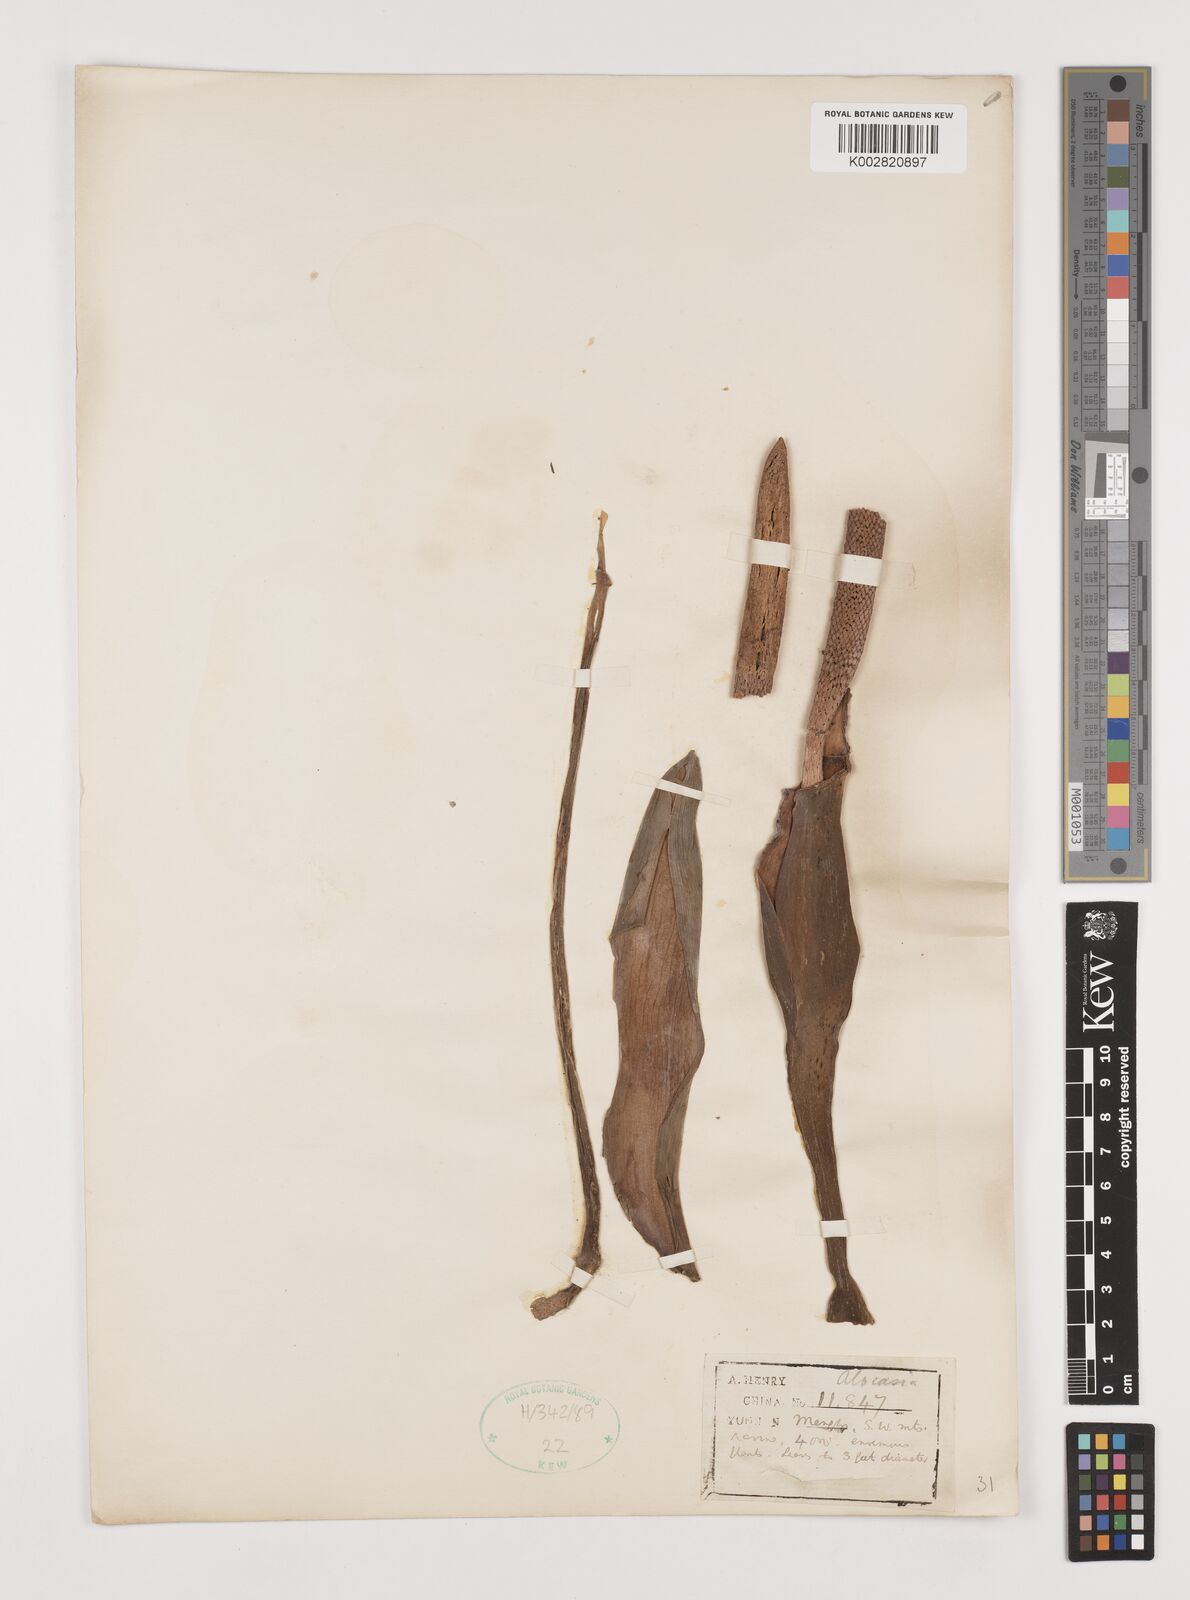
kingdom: Plantae
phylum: Tracheophyta
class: Liliopsida
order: Alismatales
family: Araceae
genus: Alocasia
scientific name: Alocasia
